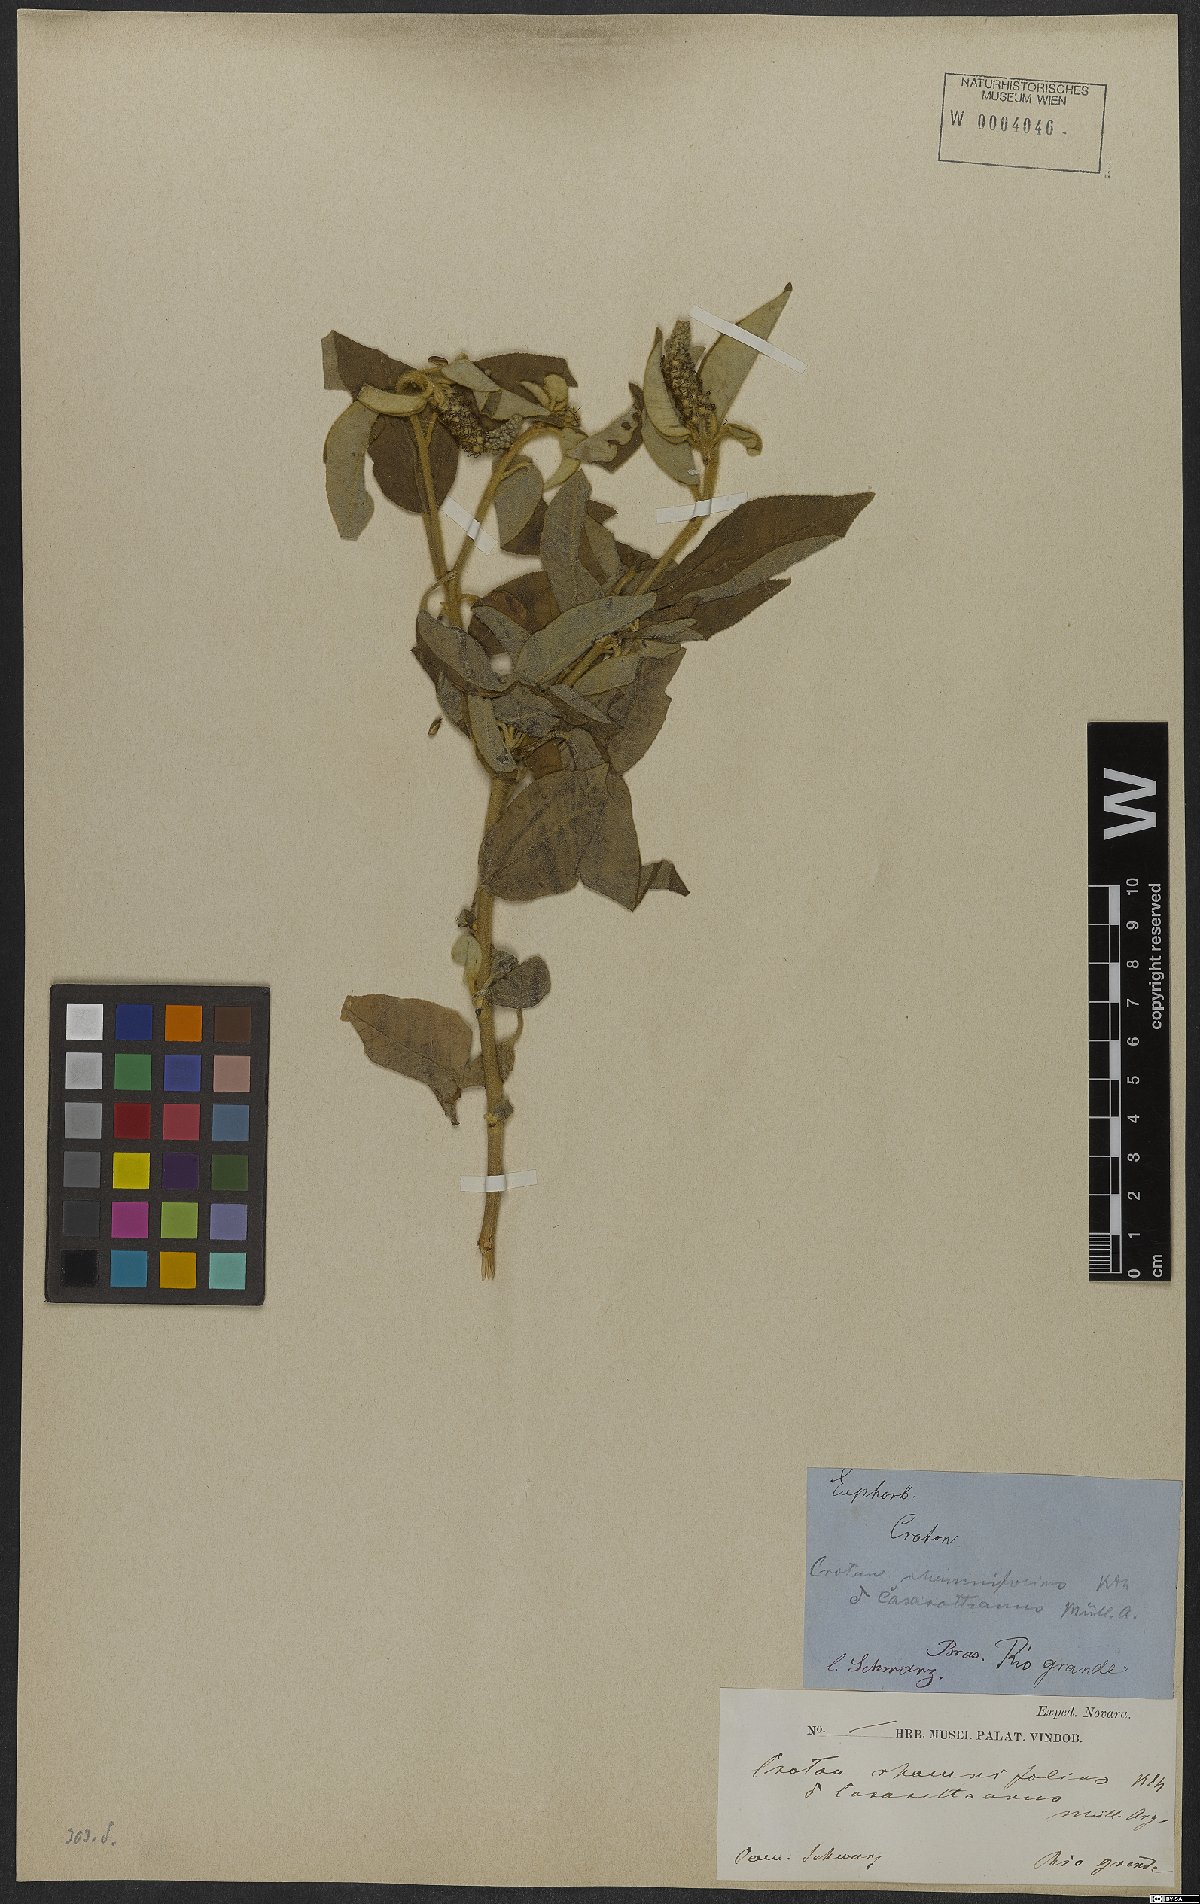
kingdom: Plantae
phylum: Tracheophyta
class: Magnoliopsida
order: Malpighiales
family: Euphorbiaceae
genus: Croton
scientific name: Croton conduplicatus
